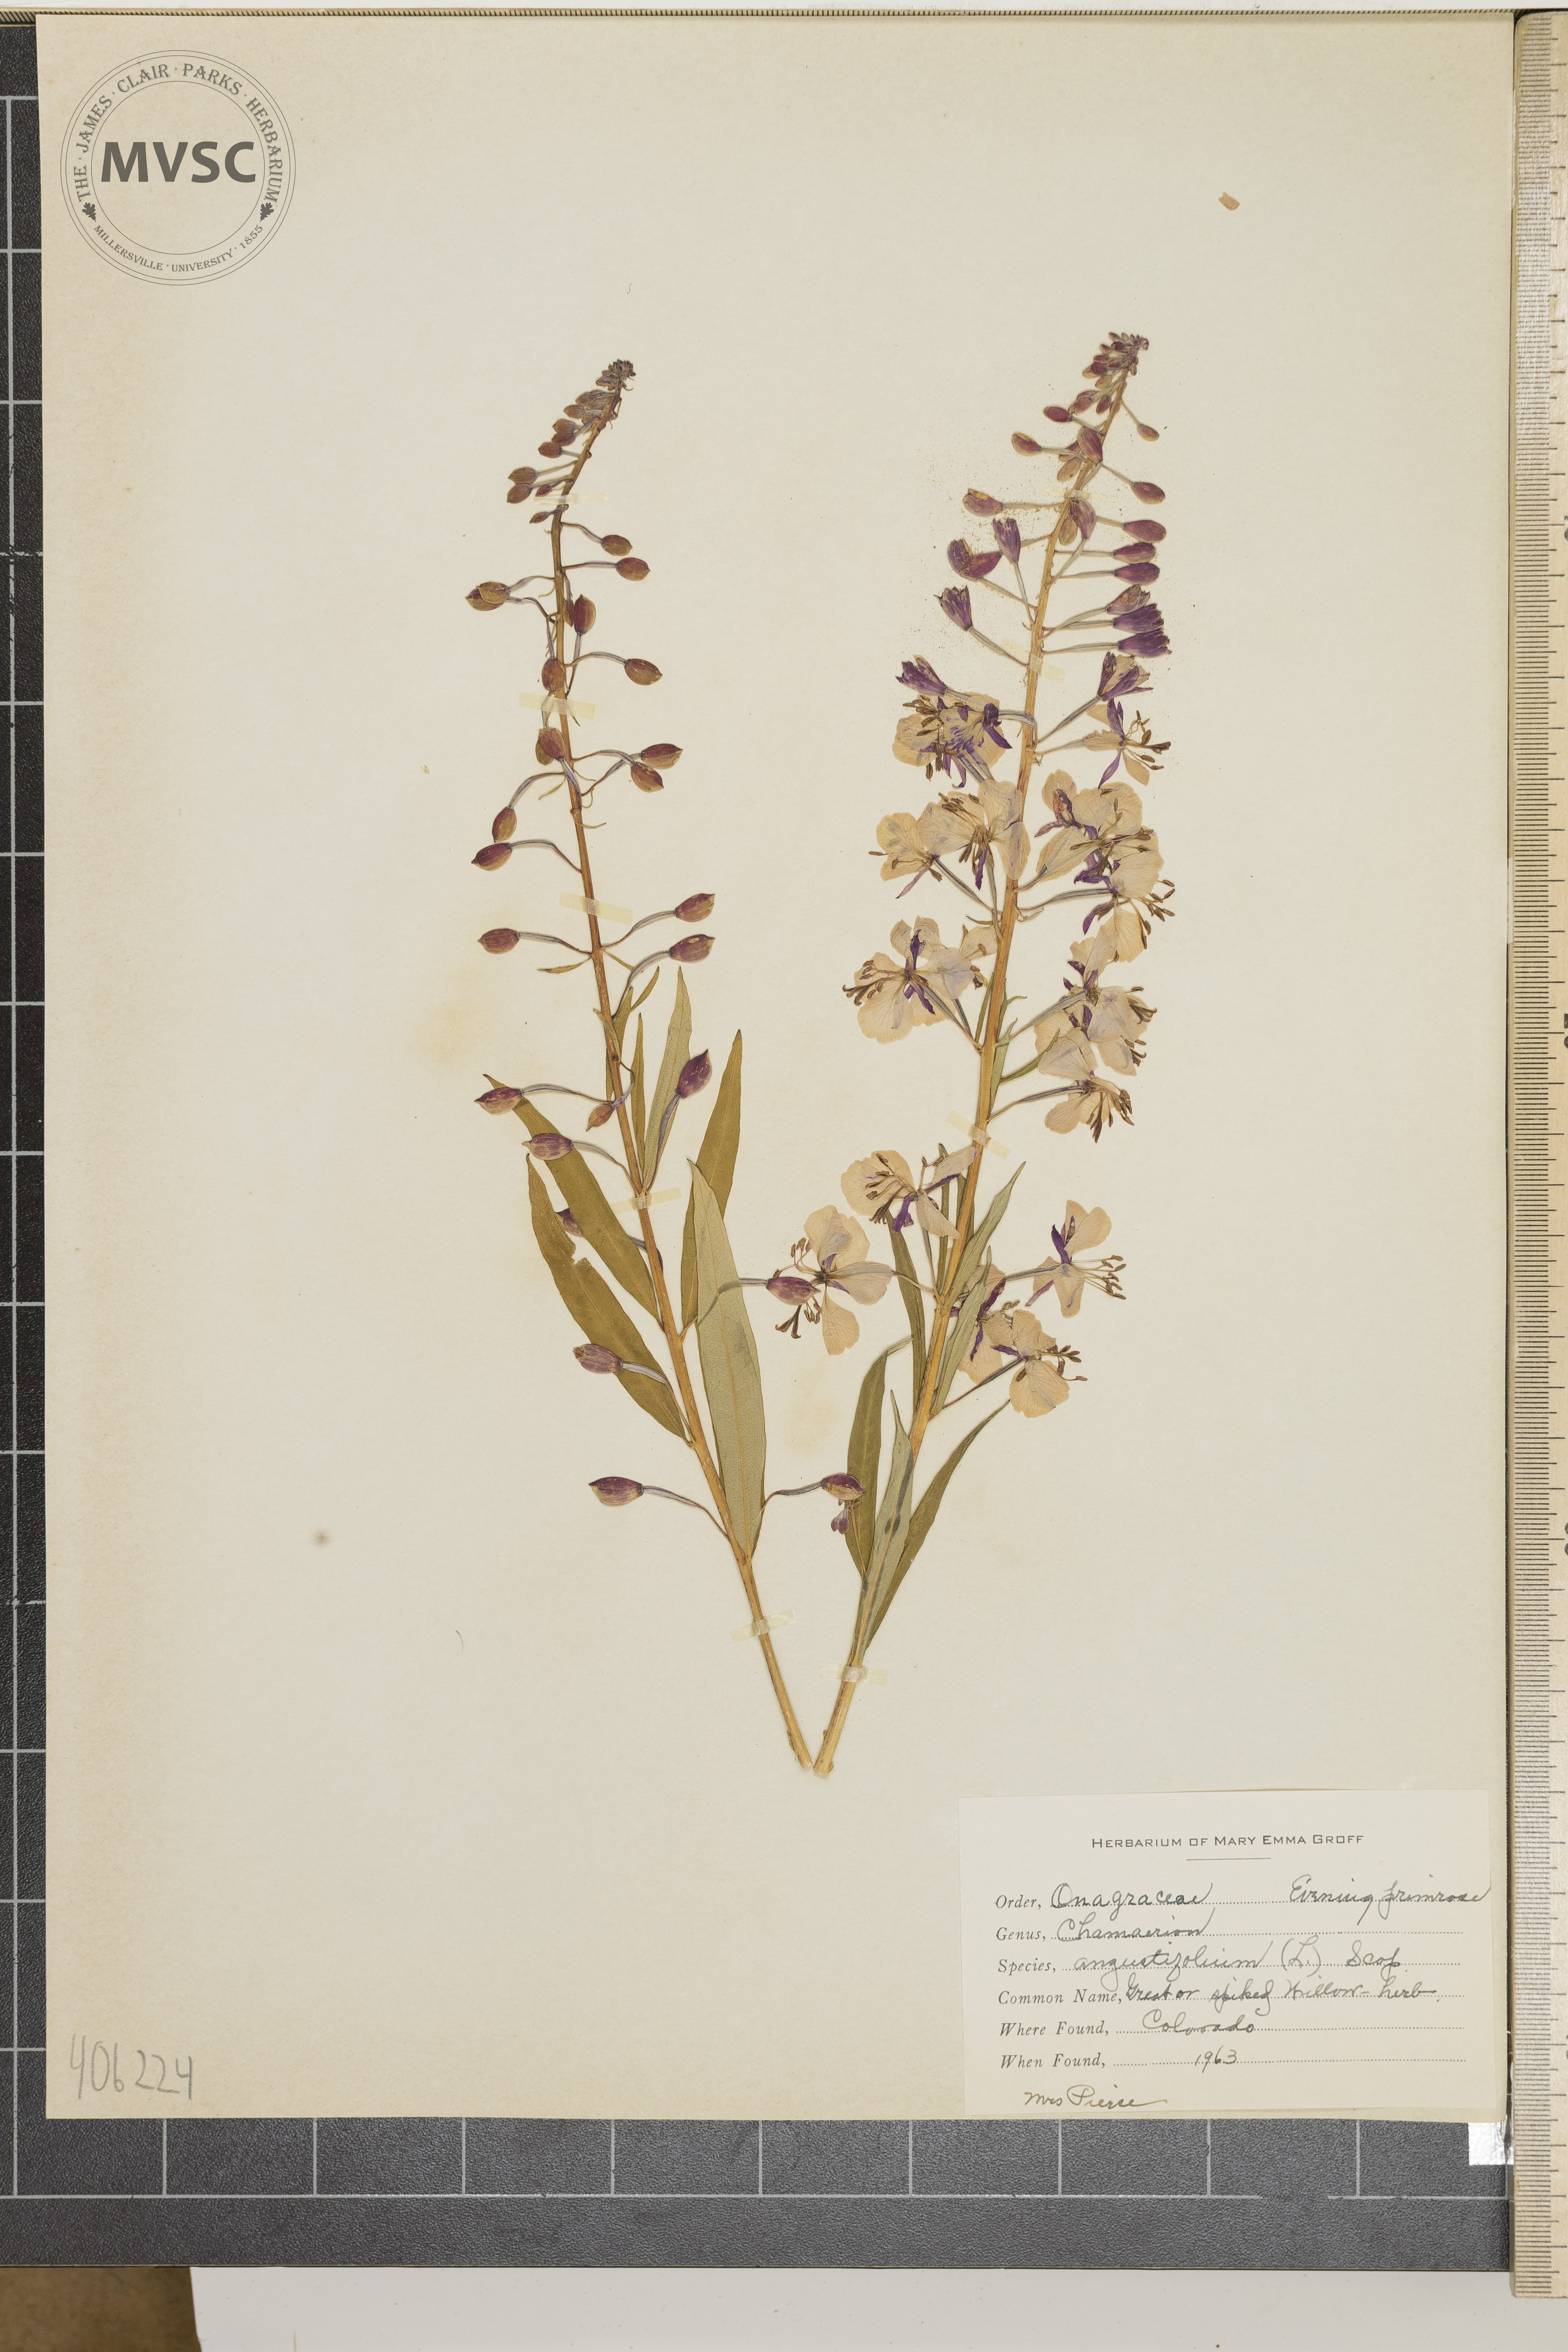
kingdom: Plantae
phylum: Tracheophyta
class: Magnoliopsida
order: Myrtales
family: Onagraceae
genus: Chamaenerion
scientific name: Chamaenerion angustifolium
